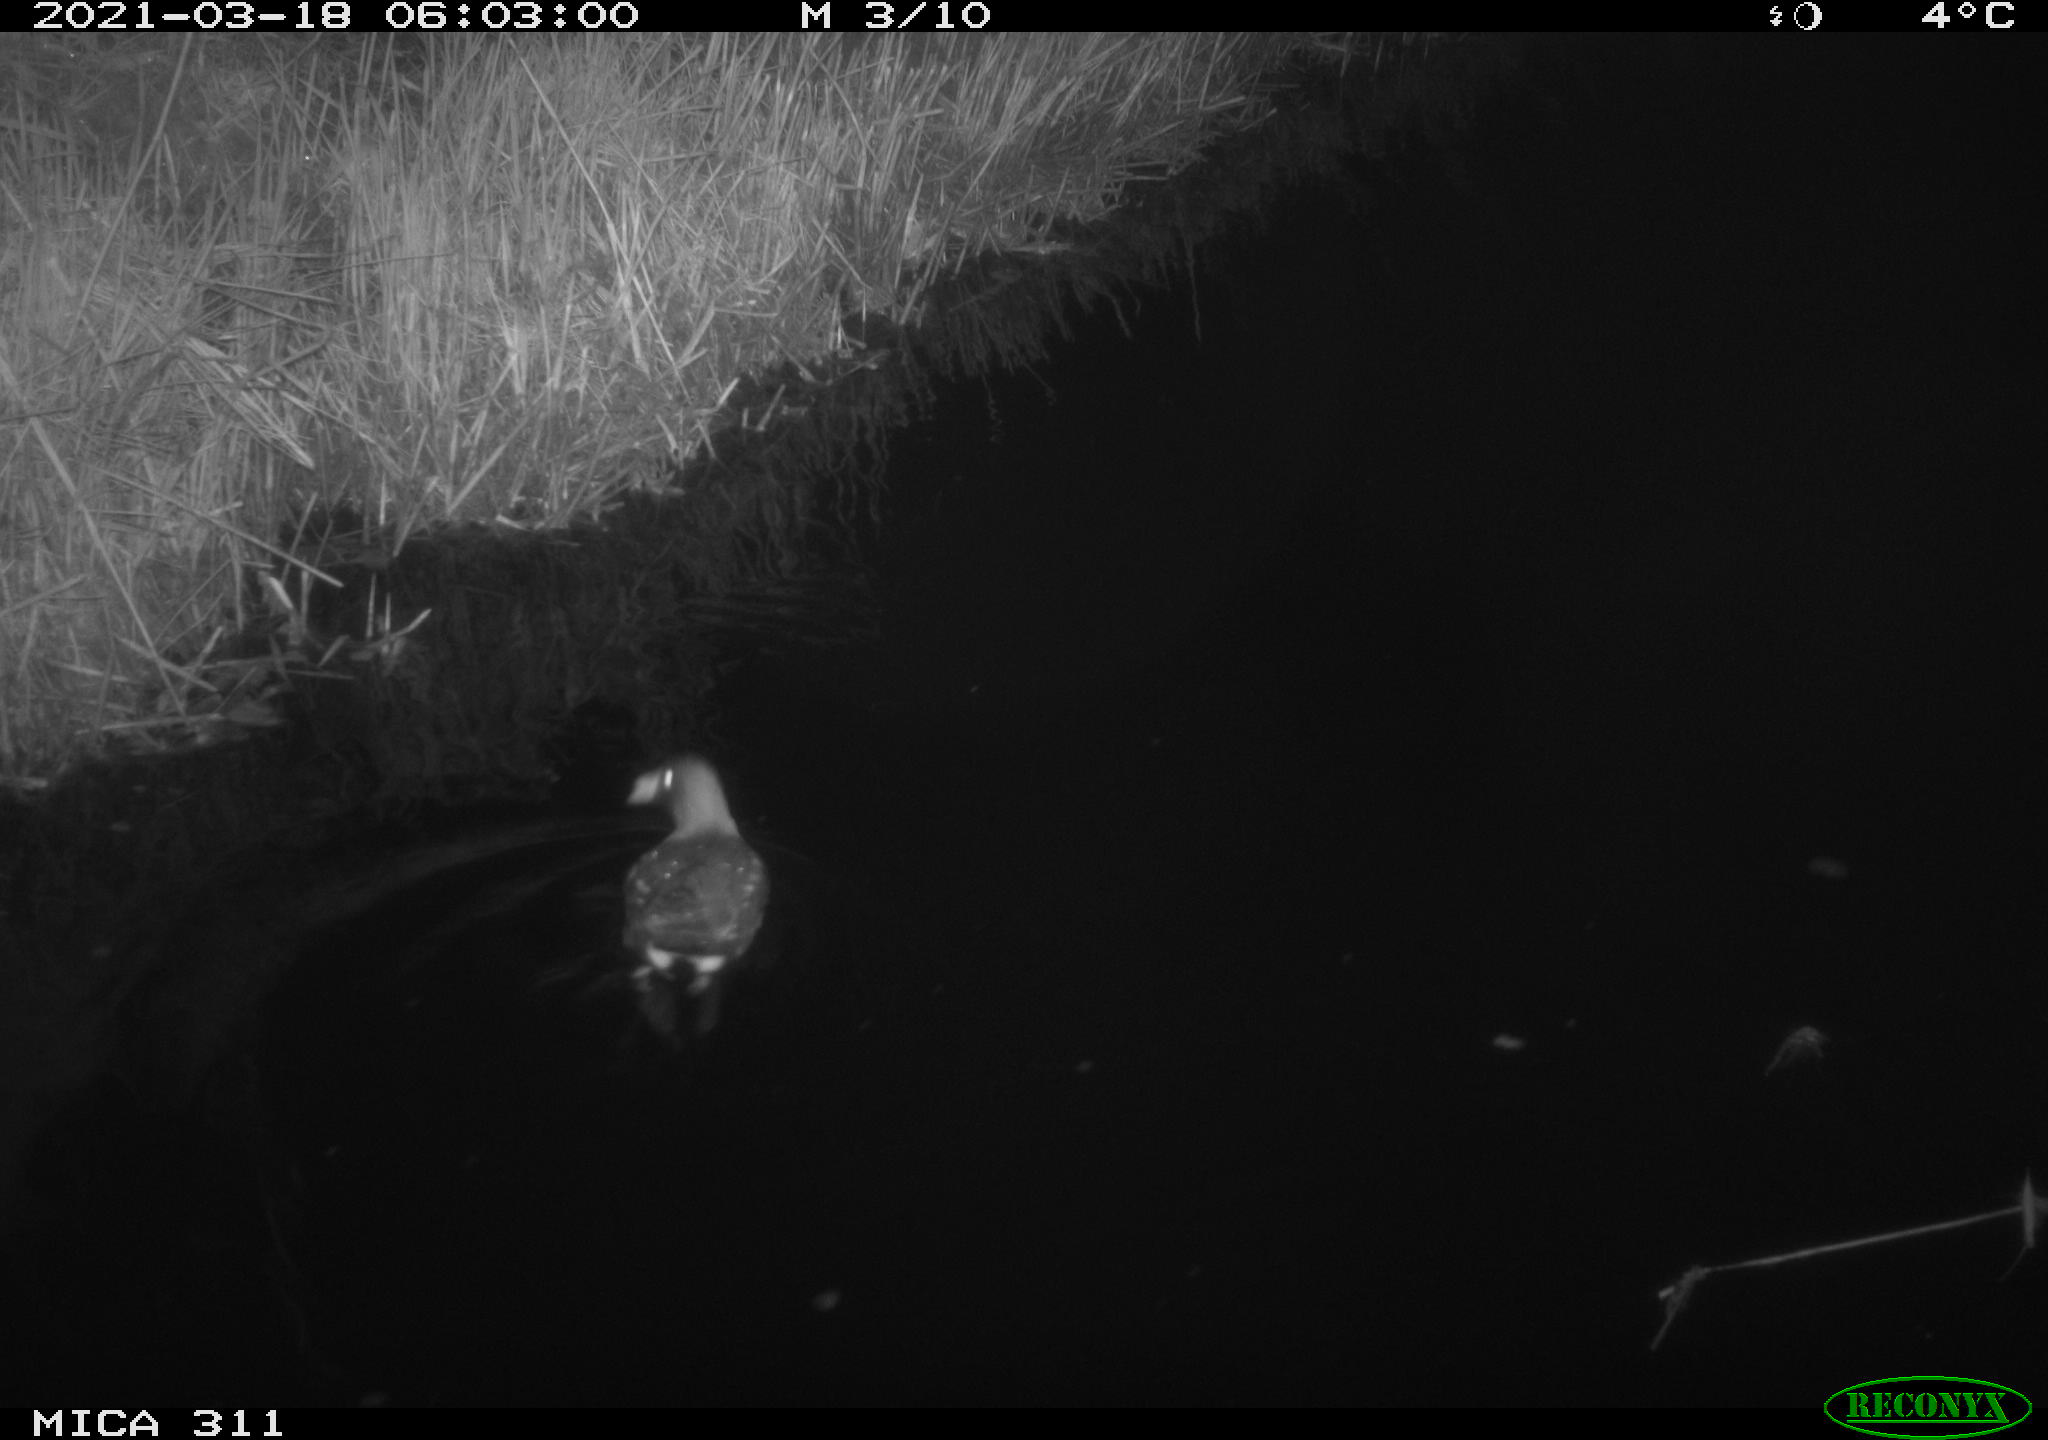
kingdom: Animalia
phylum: Chordata
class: Aves
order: Gruiformes
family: Rallidae
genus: Gallinula
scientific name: Gallinula chloropus
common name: Common moorhen
